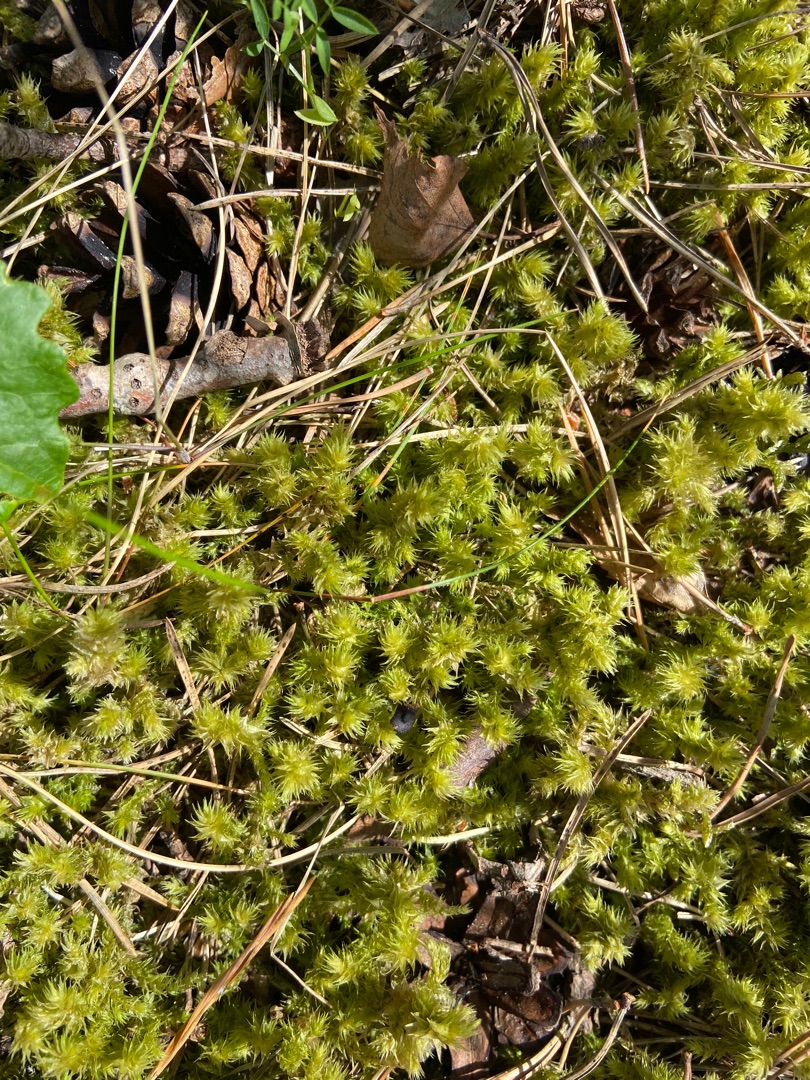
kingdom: Plantae
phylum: Bryophyta
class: Bryopsida
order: Hypnales
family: Hylocomiaceae
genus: Hylocomiadelphus
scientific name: Hylocomiadelphus triquetrus
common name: Stor kransemos
